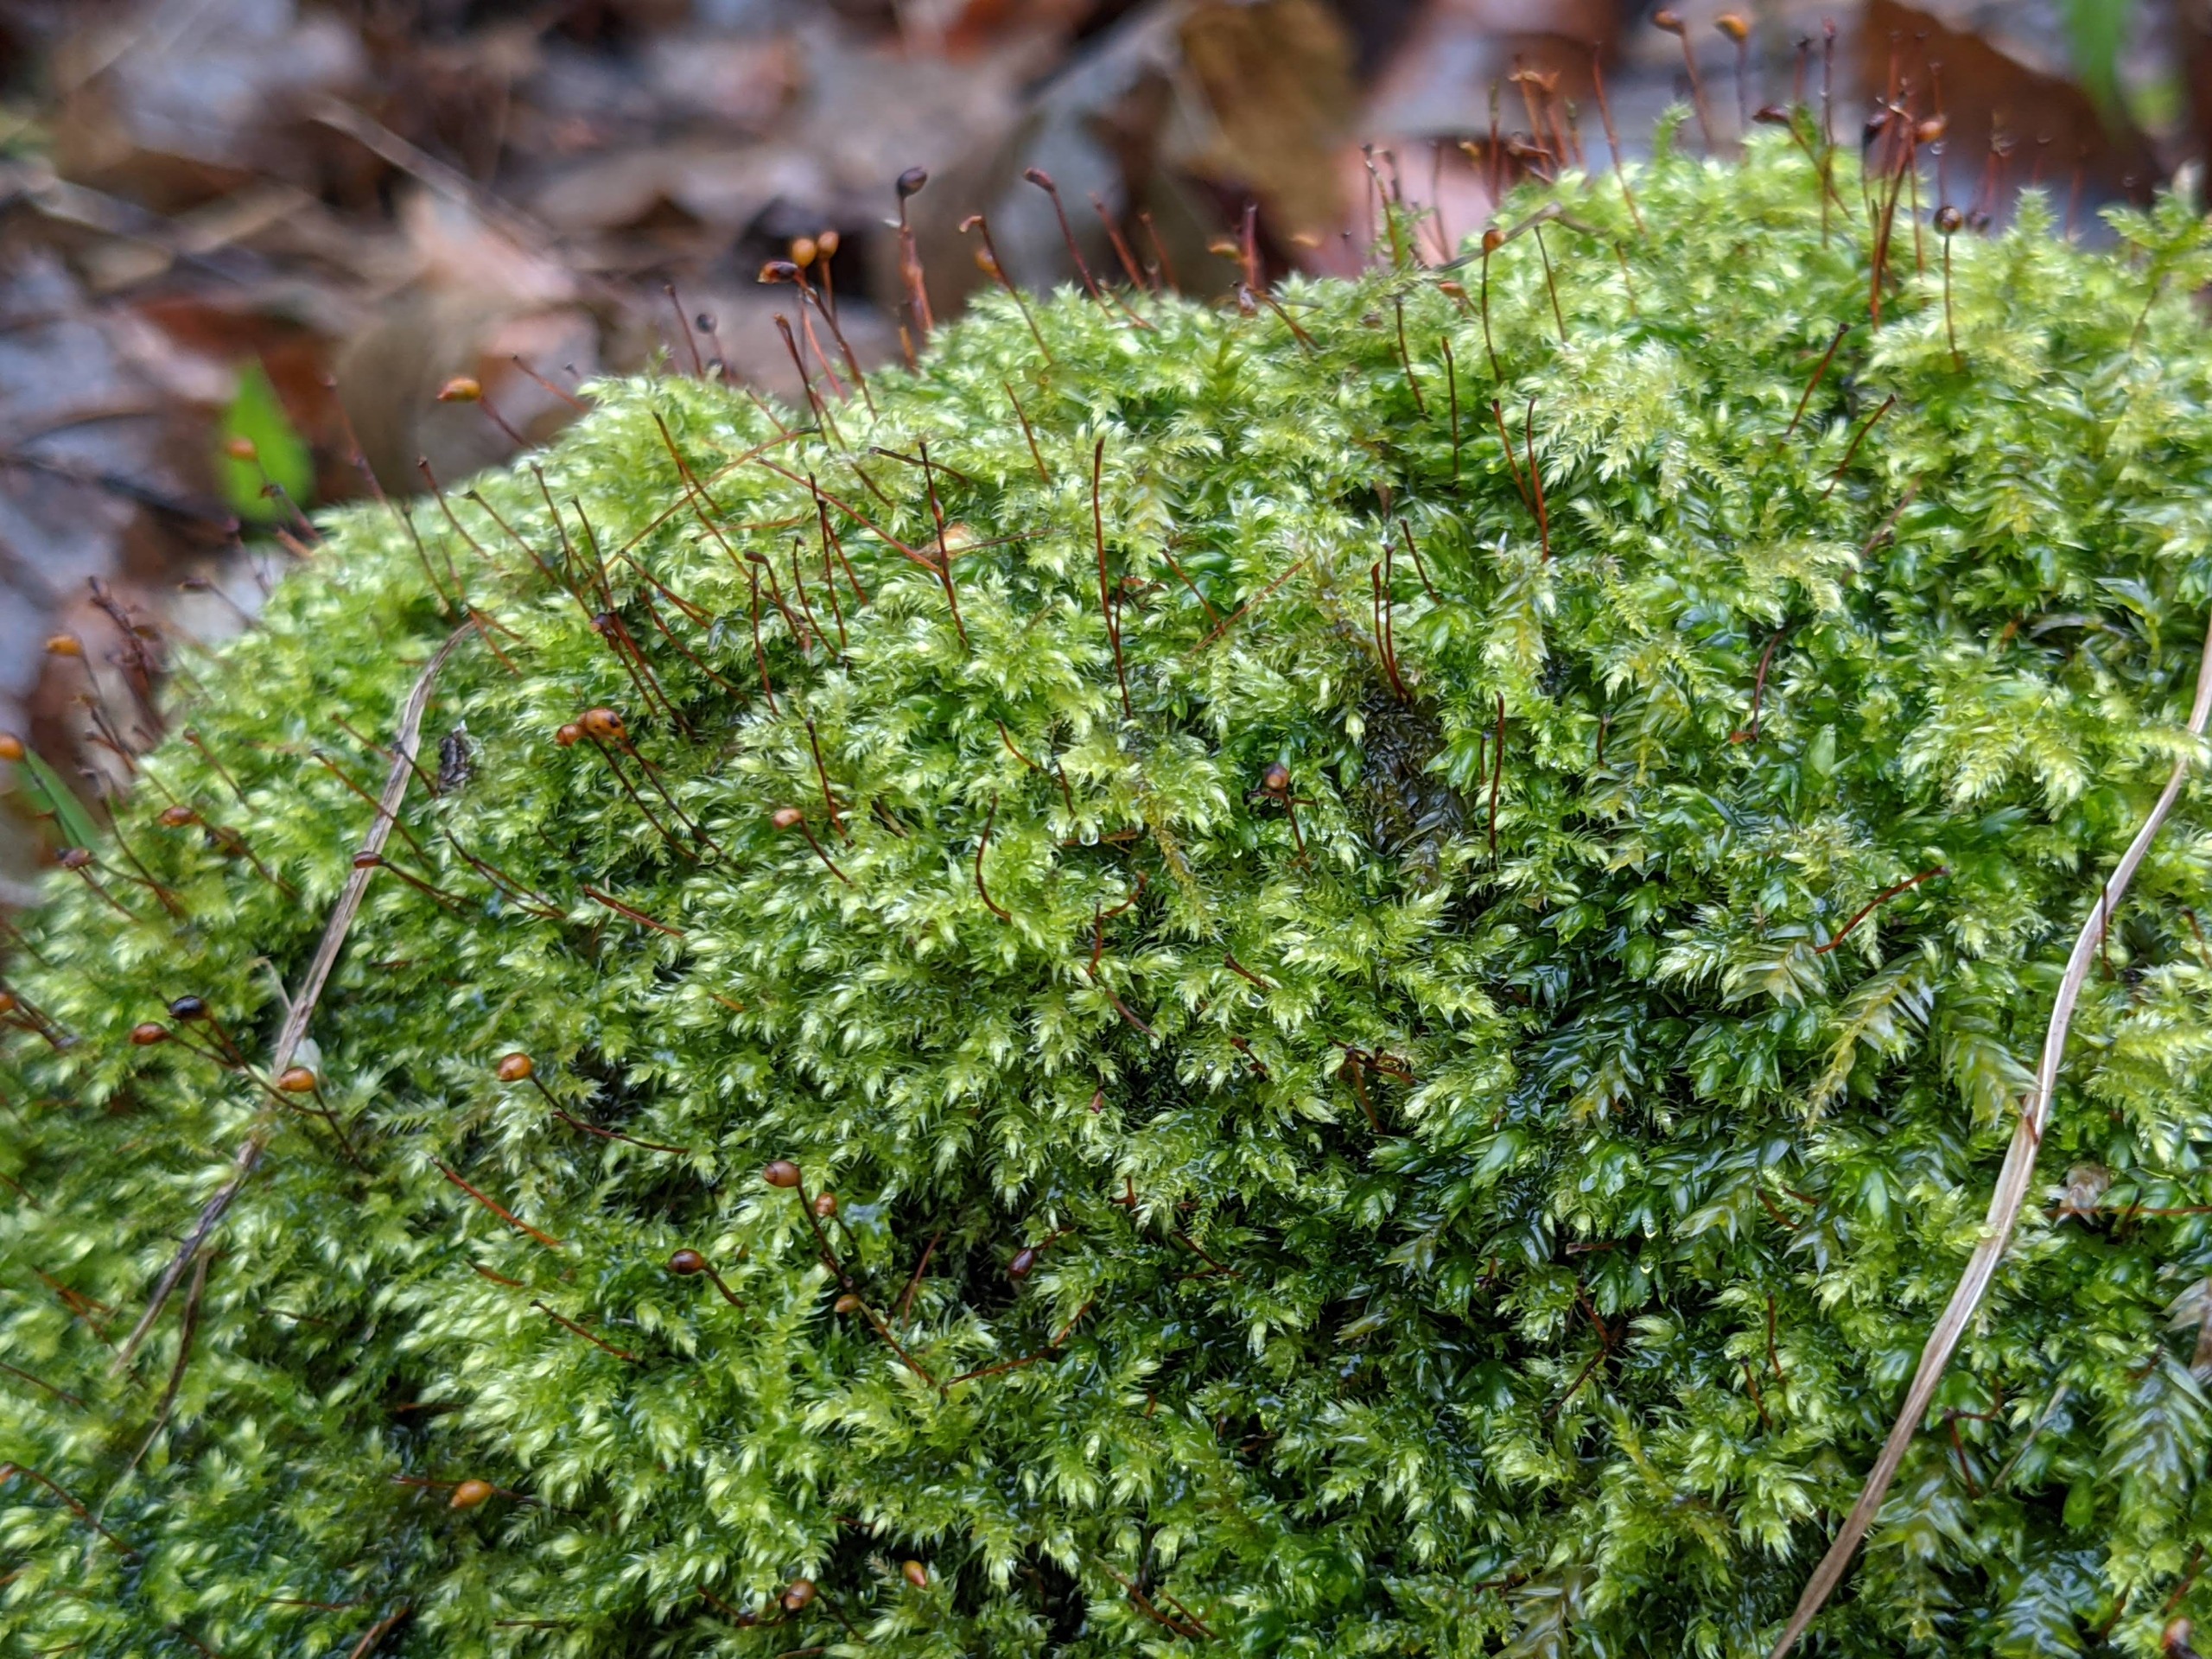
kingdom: Plantae
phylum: Bryophyta
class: Bryopsida
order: Hypnales
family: Brachytheciaceae
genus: Brachytheciastrum
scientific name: Brachytheciastrum velutinum
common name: Fløjls-kortkapsel
